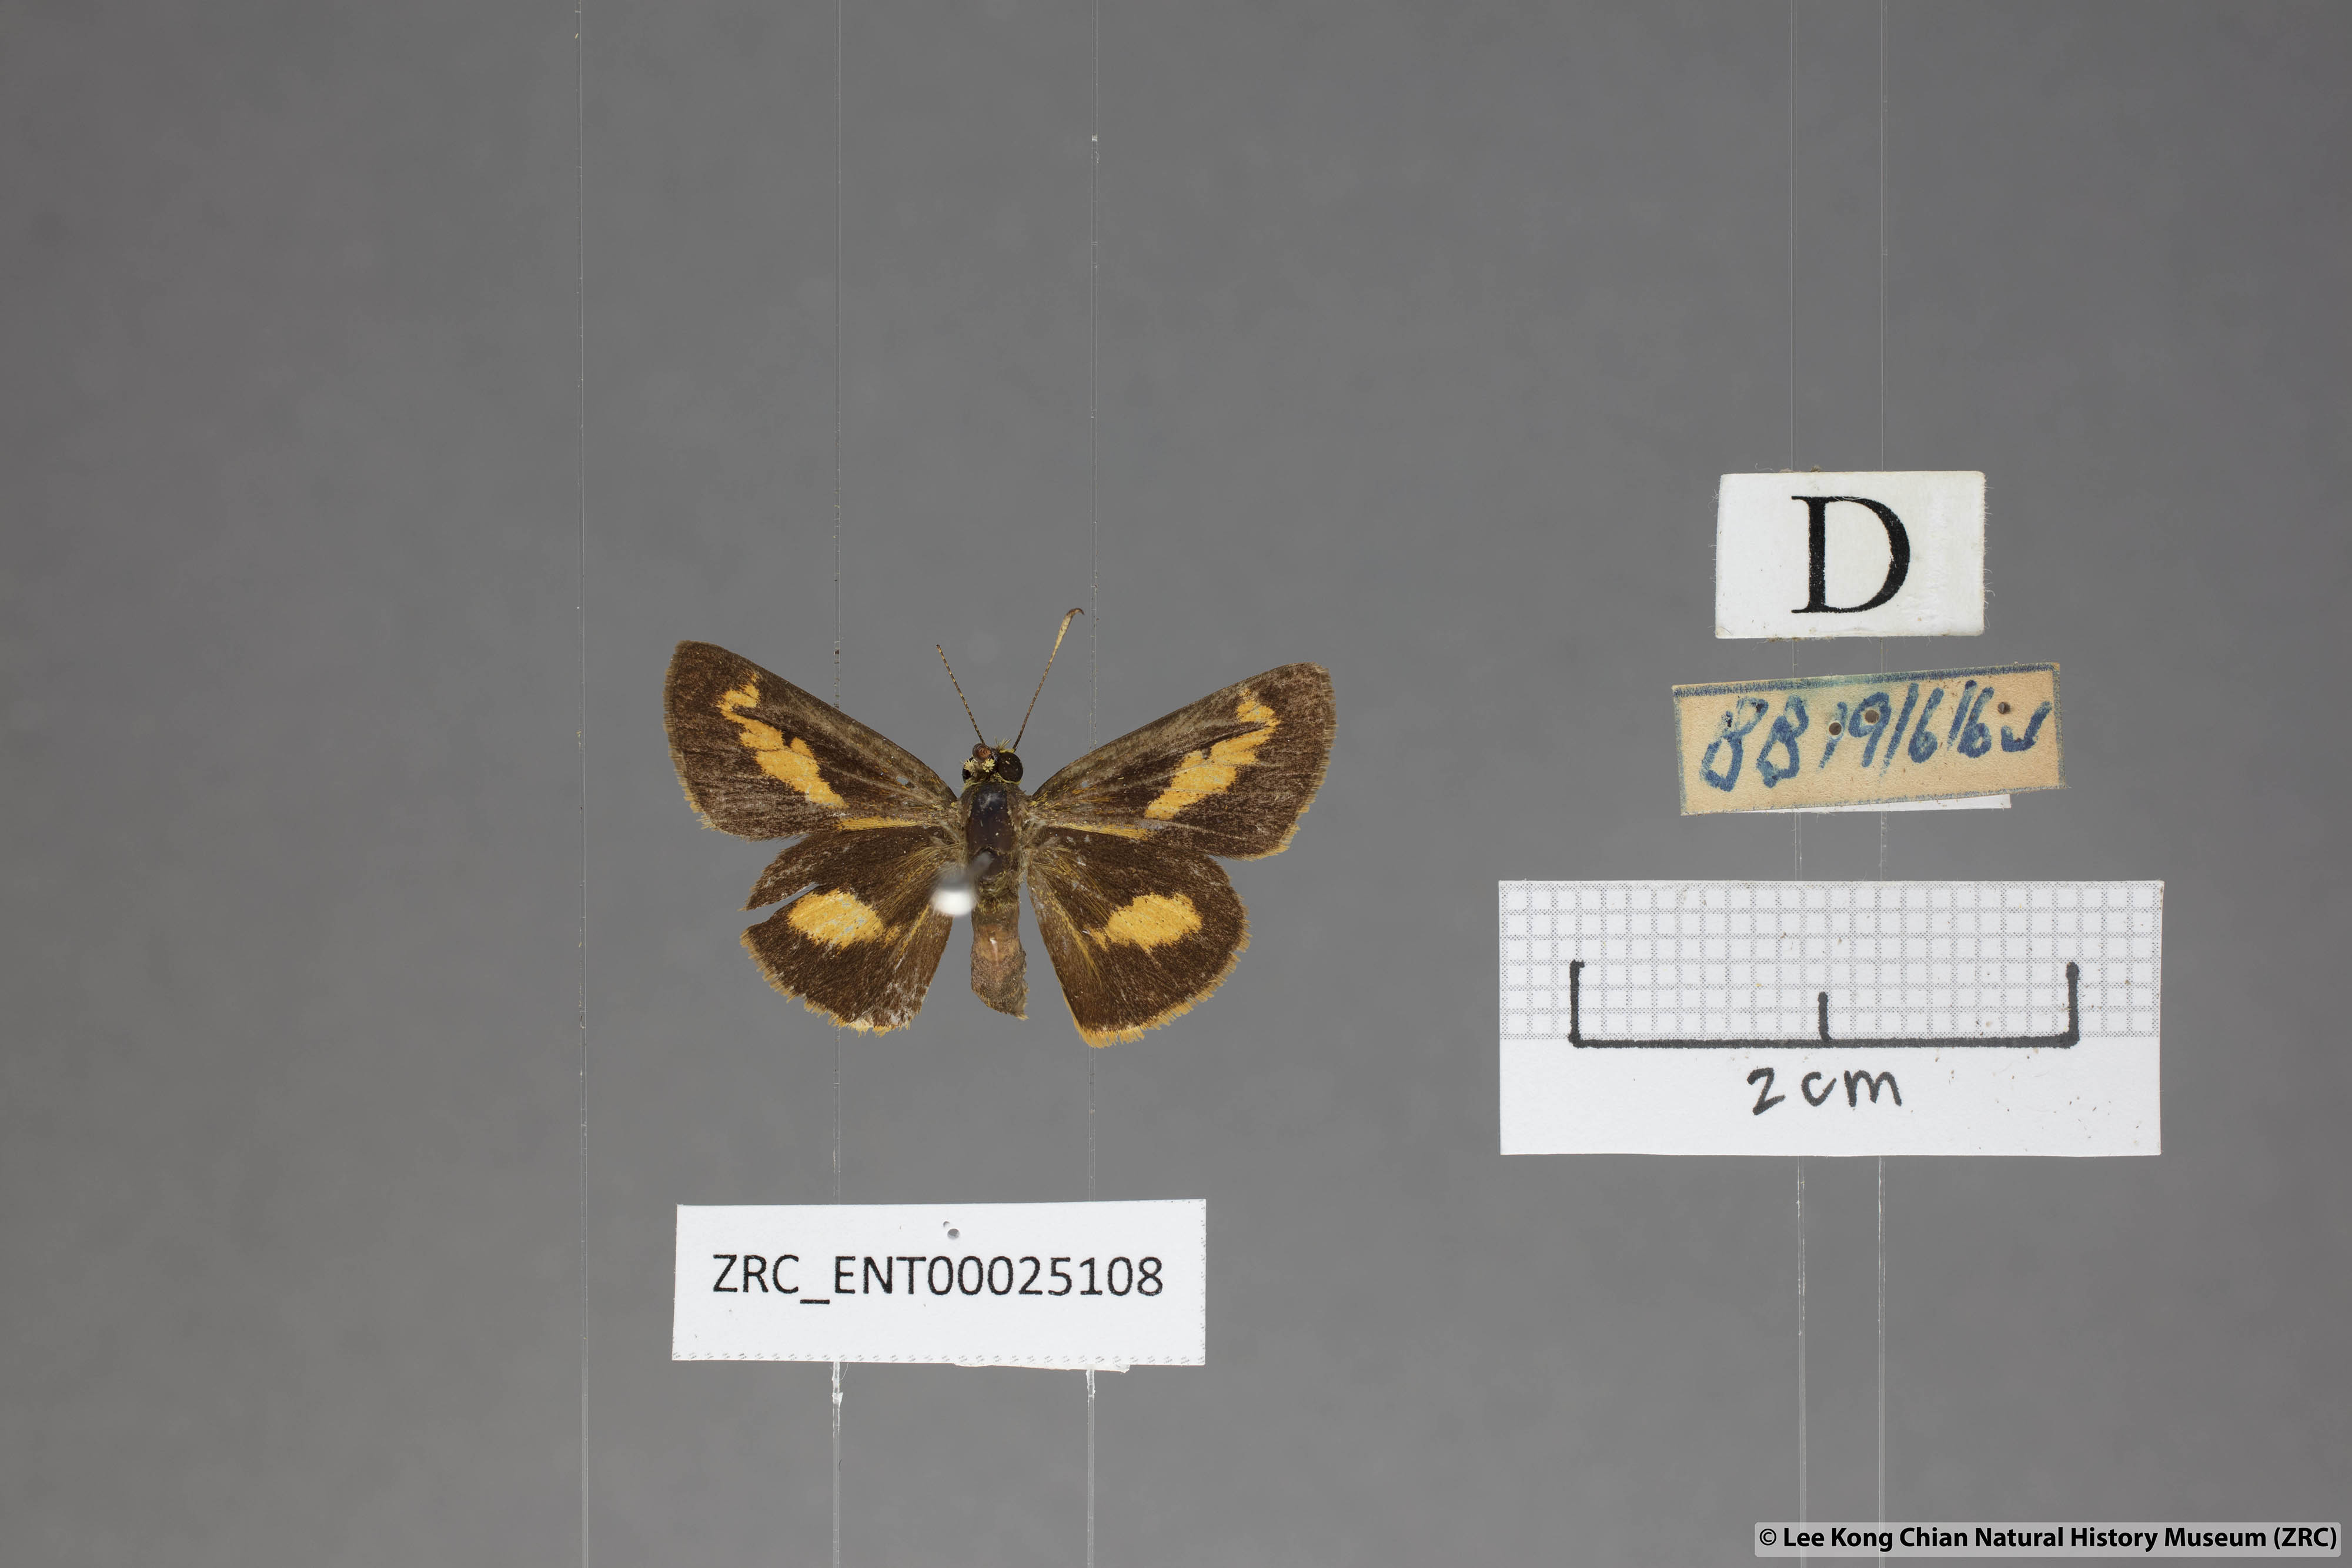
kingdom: Animalia
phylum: Arthropoda
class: Insecta
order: Lepidoptera
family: Hesperiidae
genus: Oriens
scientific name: Oriens paragola
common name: Malay dartlet
